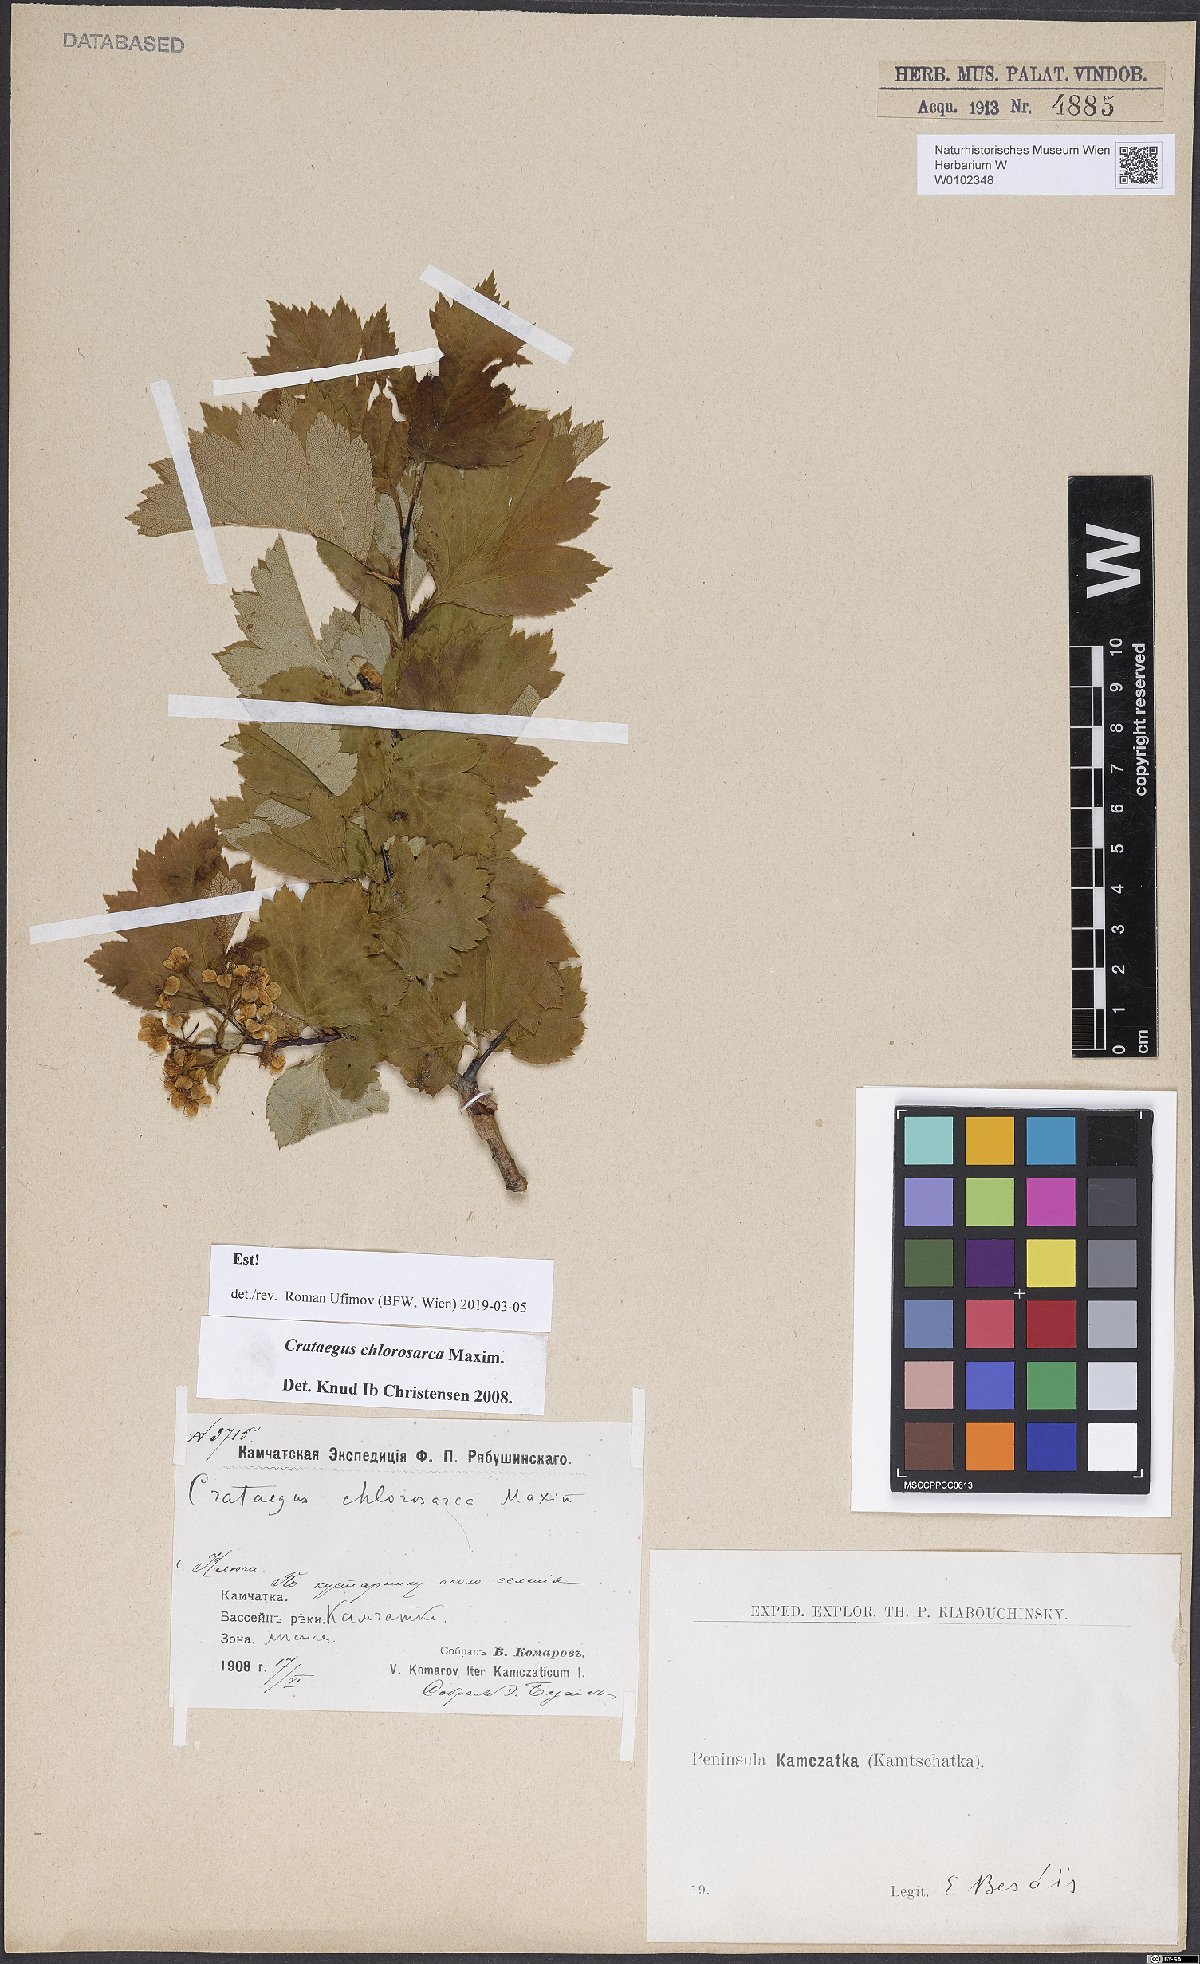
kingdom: Plantae
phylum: Tracheophyta
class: Magnoliopsida
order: Rosales
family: Rosaceae
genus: Crataegus
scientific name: Crataegus chlorosarca
